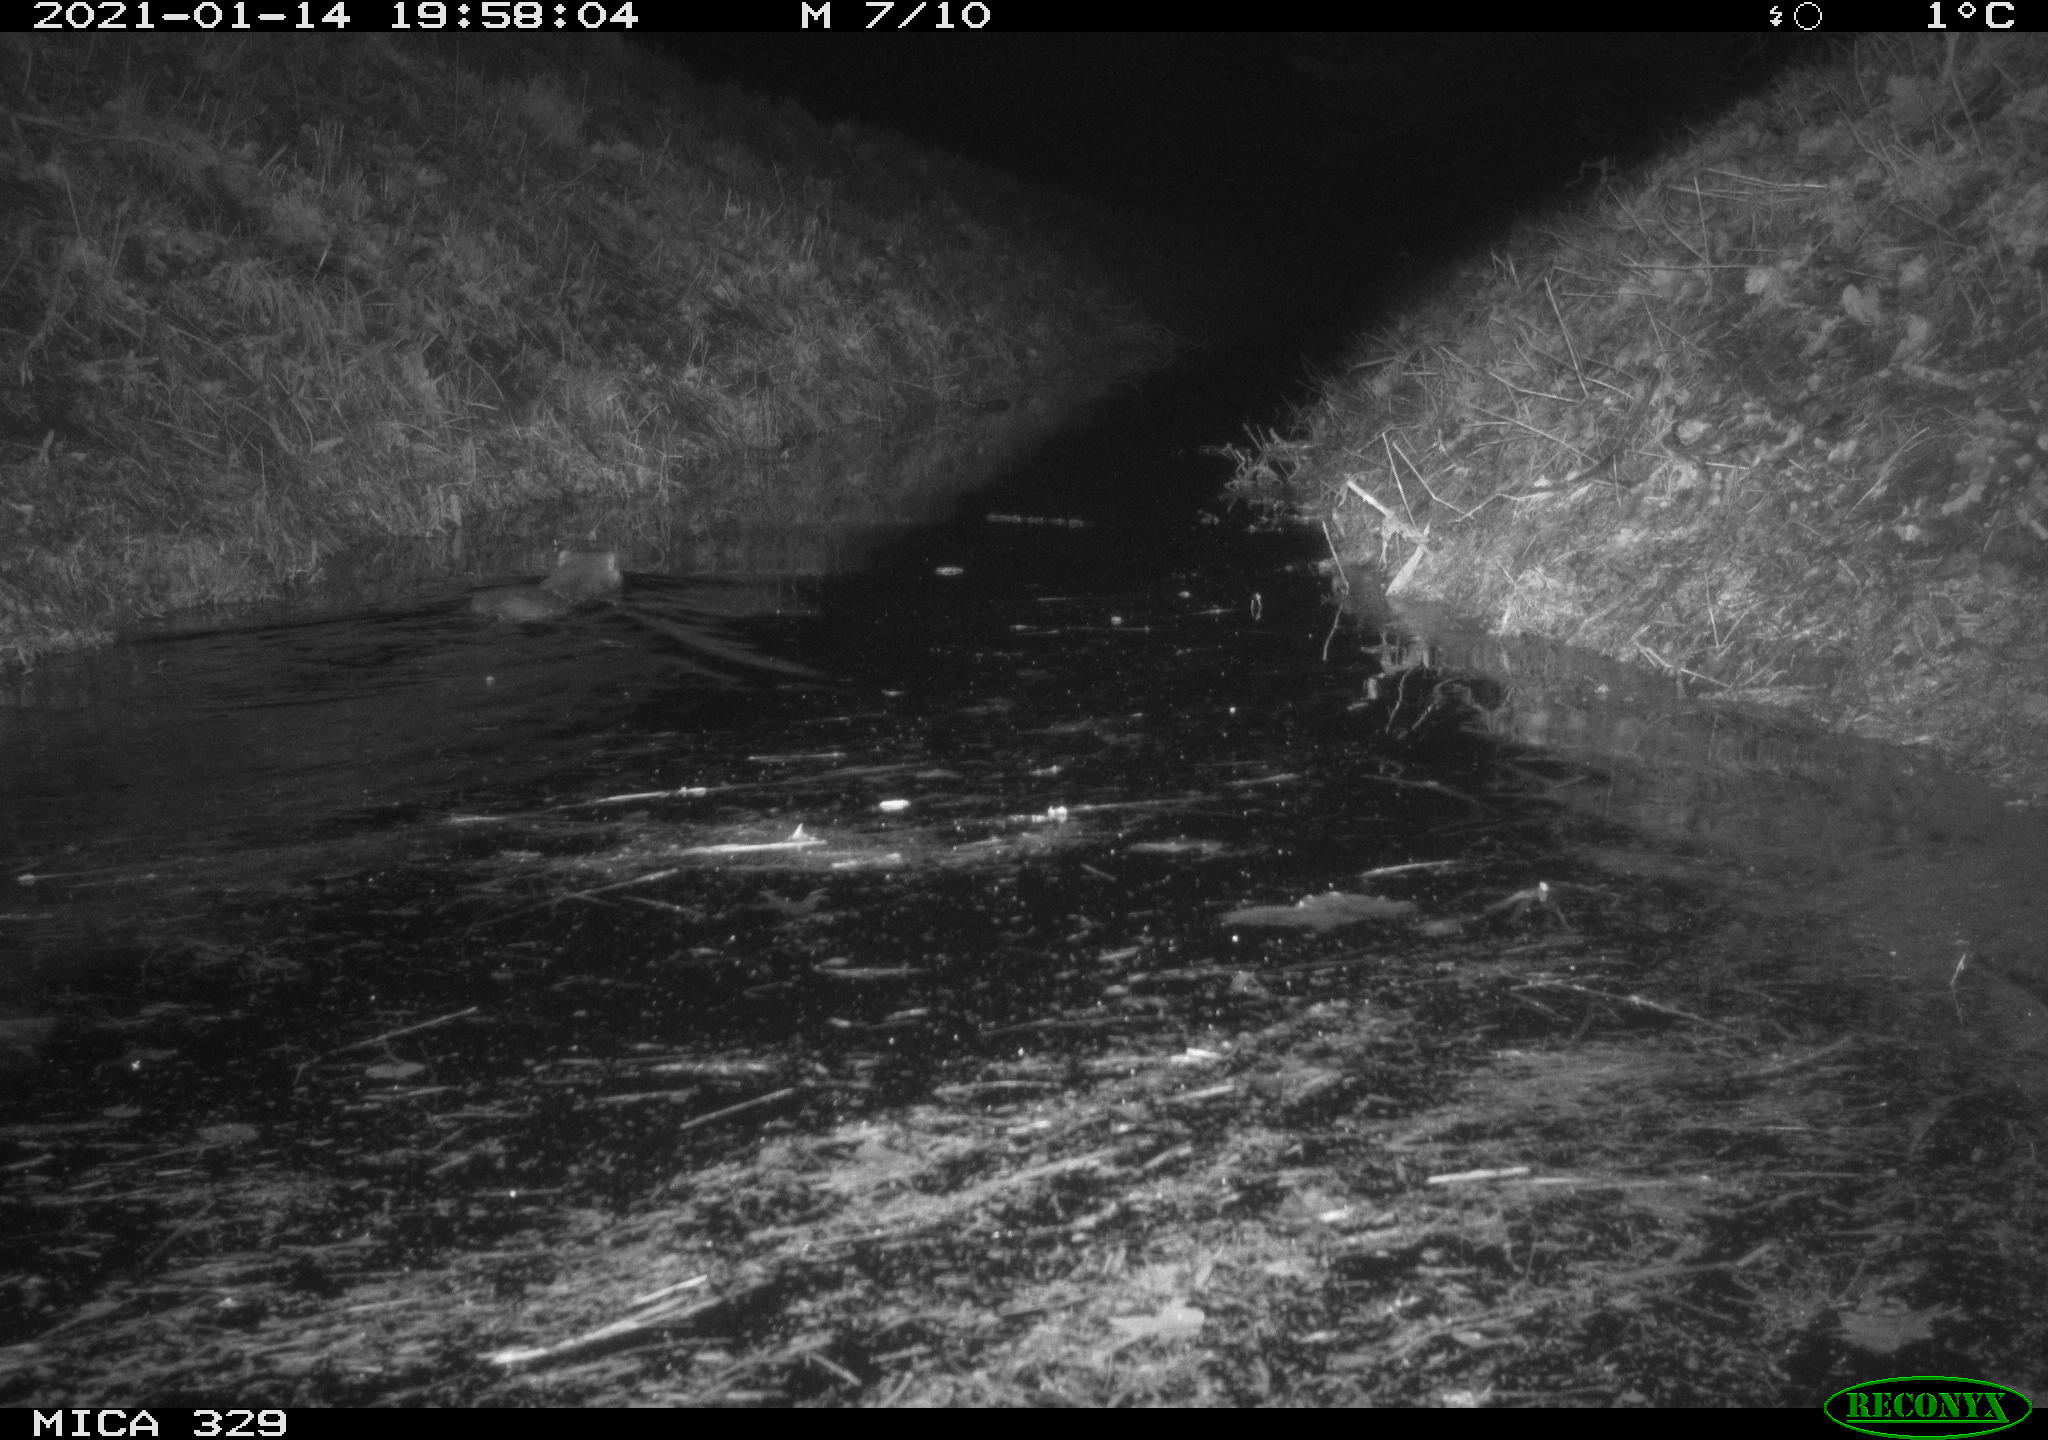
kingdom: Animalia
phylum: Chordata
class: Mammalia
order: Rodentia
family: Myocastoridae
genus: Myocastor
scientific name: Myocastor coypus
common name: Coypu
